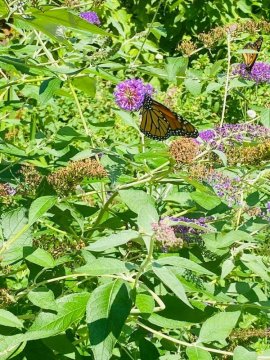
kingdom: Animalia
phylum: Arthropoda
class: Insecta
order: Lepidoptera
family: Nymphalidae
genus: Danaus
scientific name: Danaus plexippus
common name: Monarch
